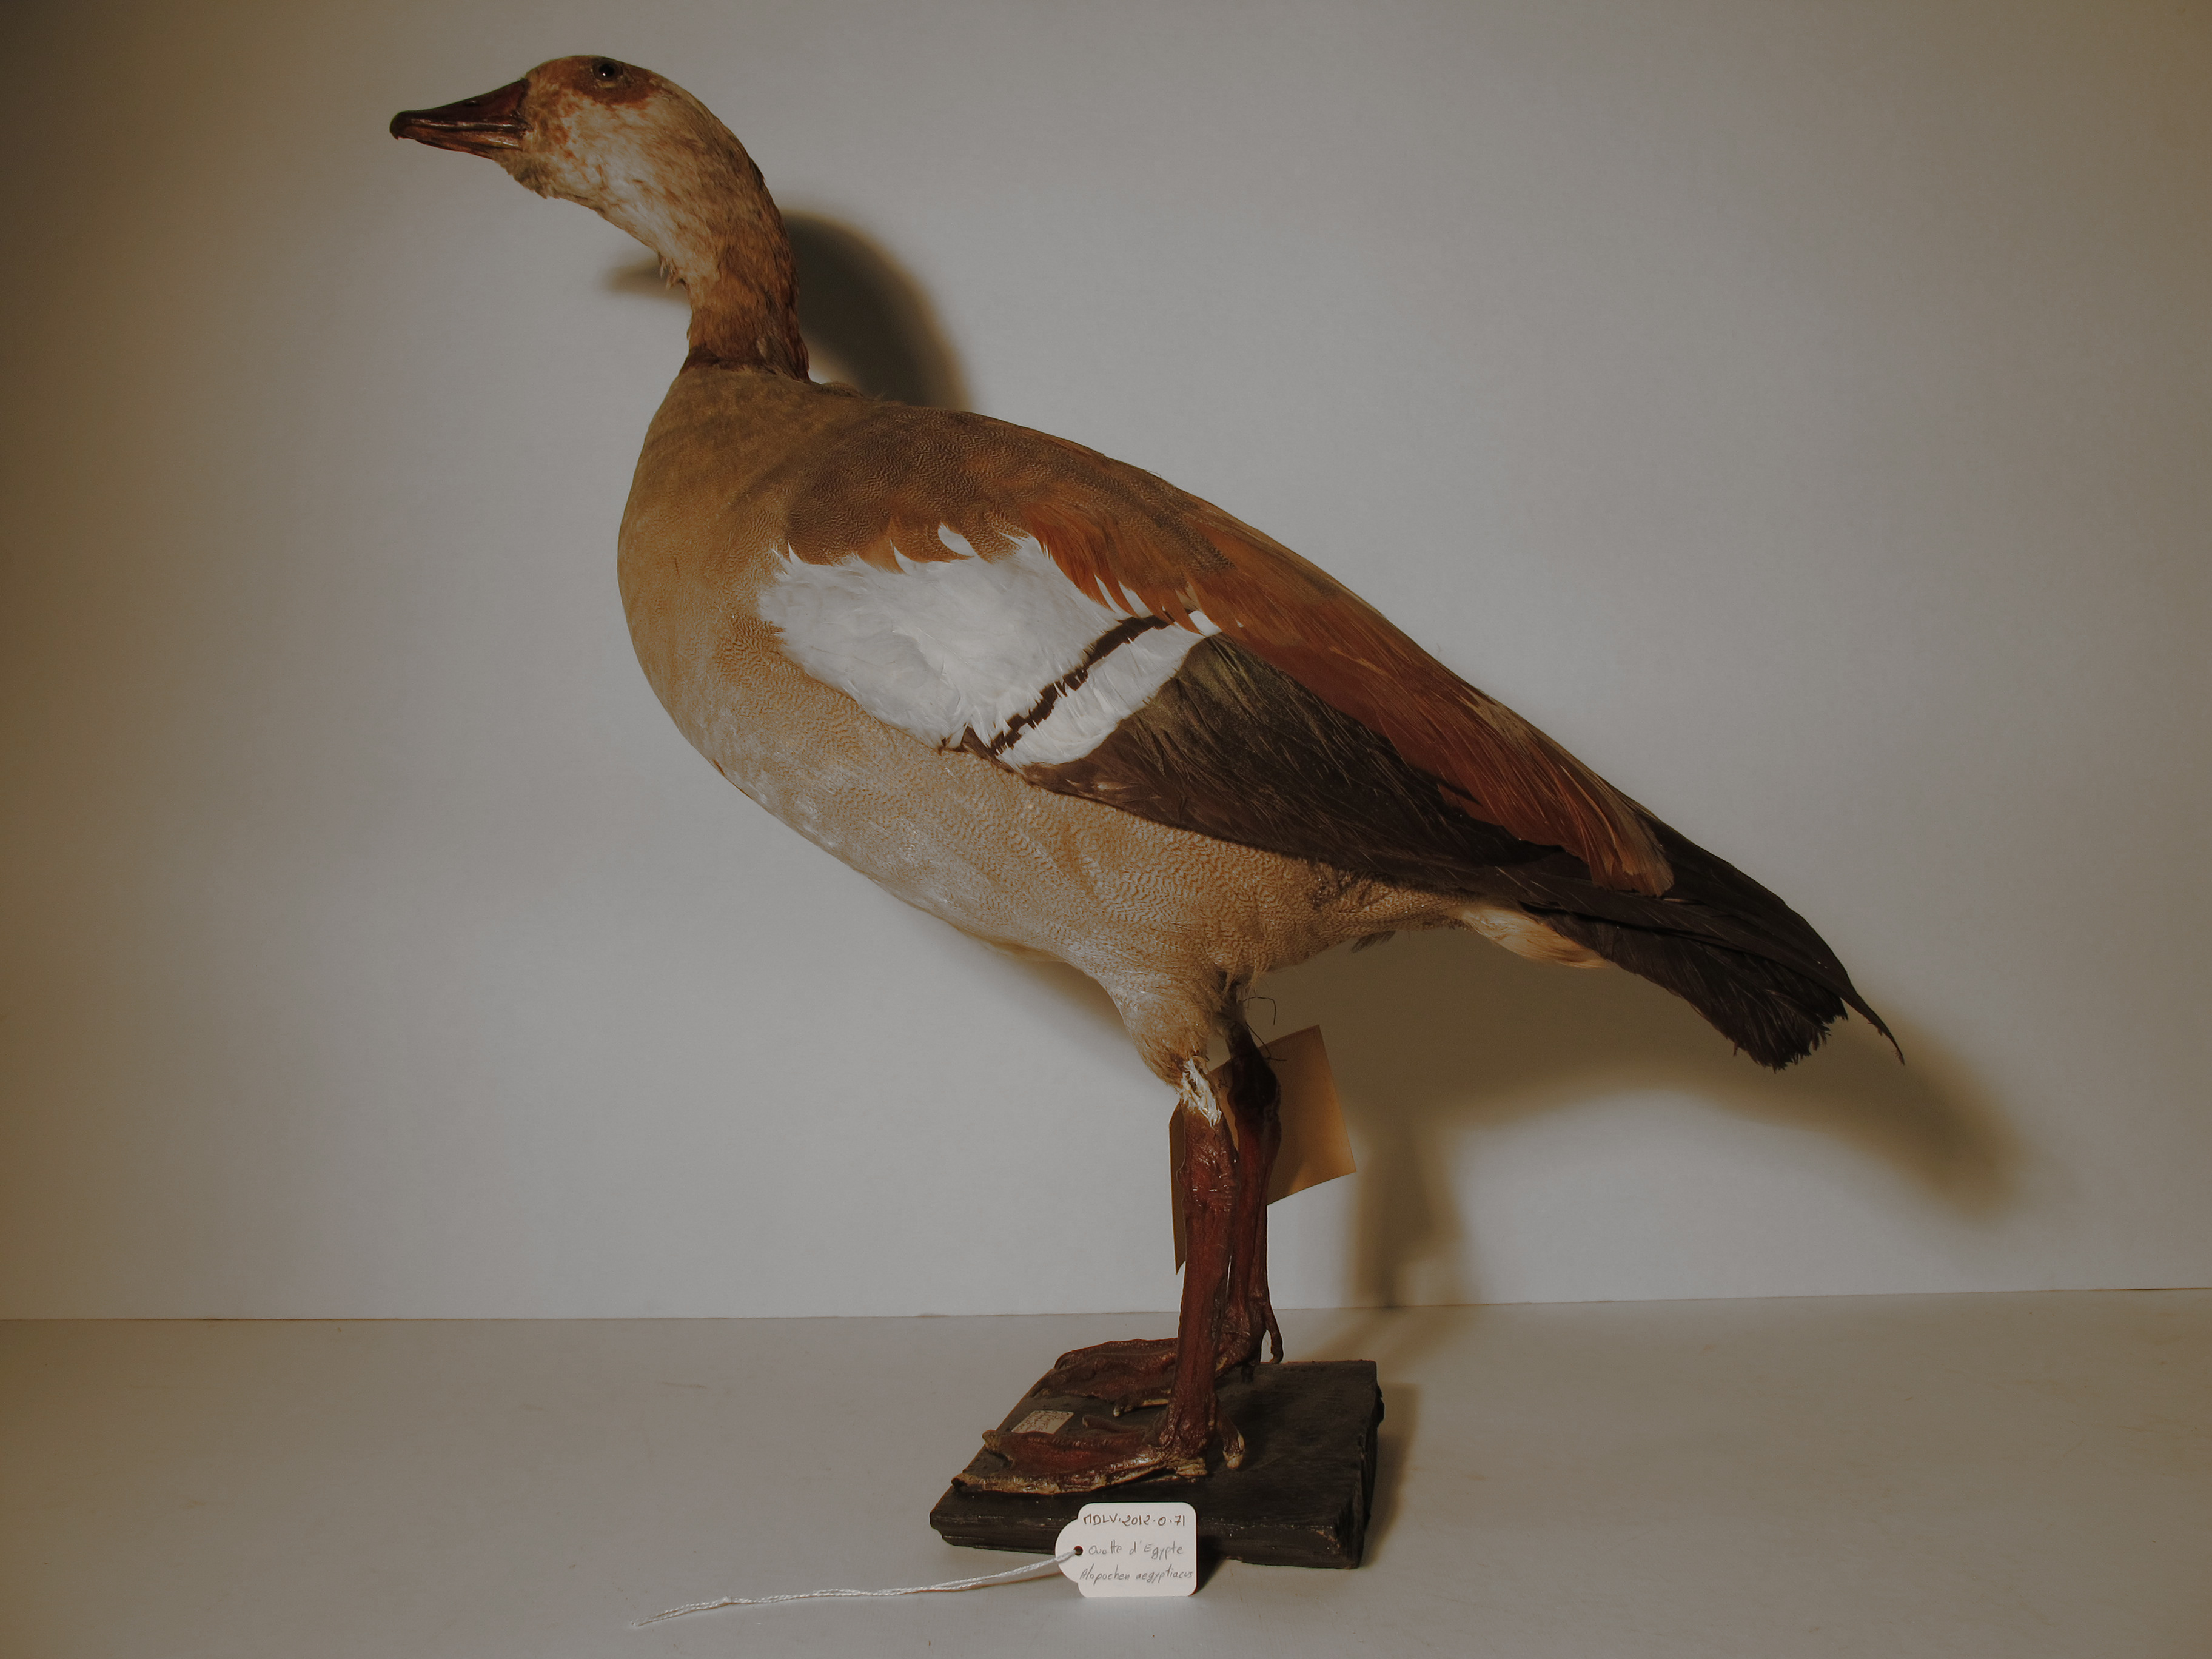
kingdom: Animalia
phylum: Chordata
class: Aves
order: Anseriformes
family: Anatidae
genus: Alopochen
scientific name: Alopochen aegyptiaca
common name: Egyptian Goose
